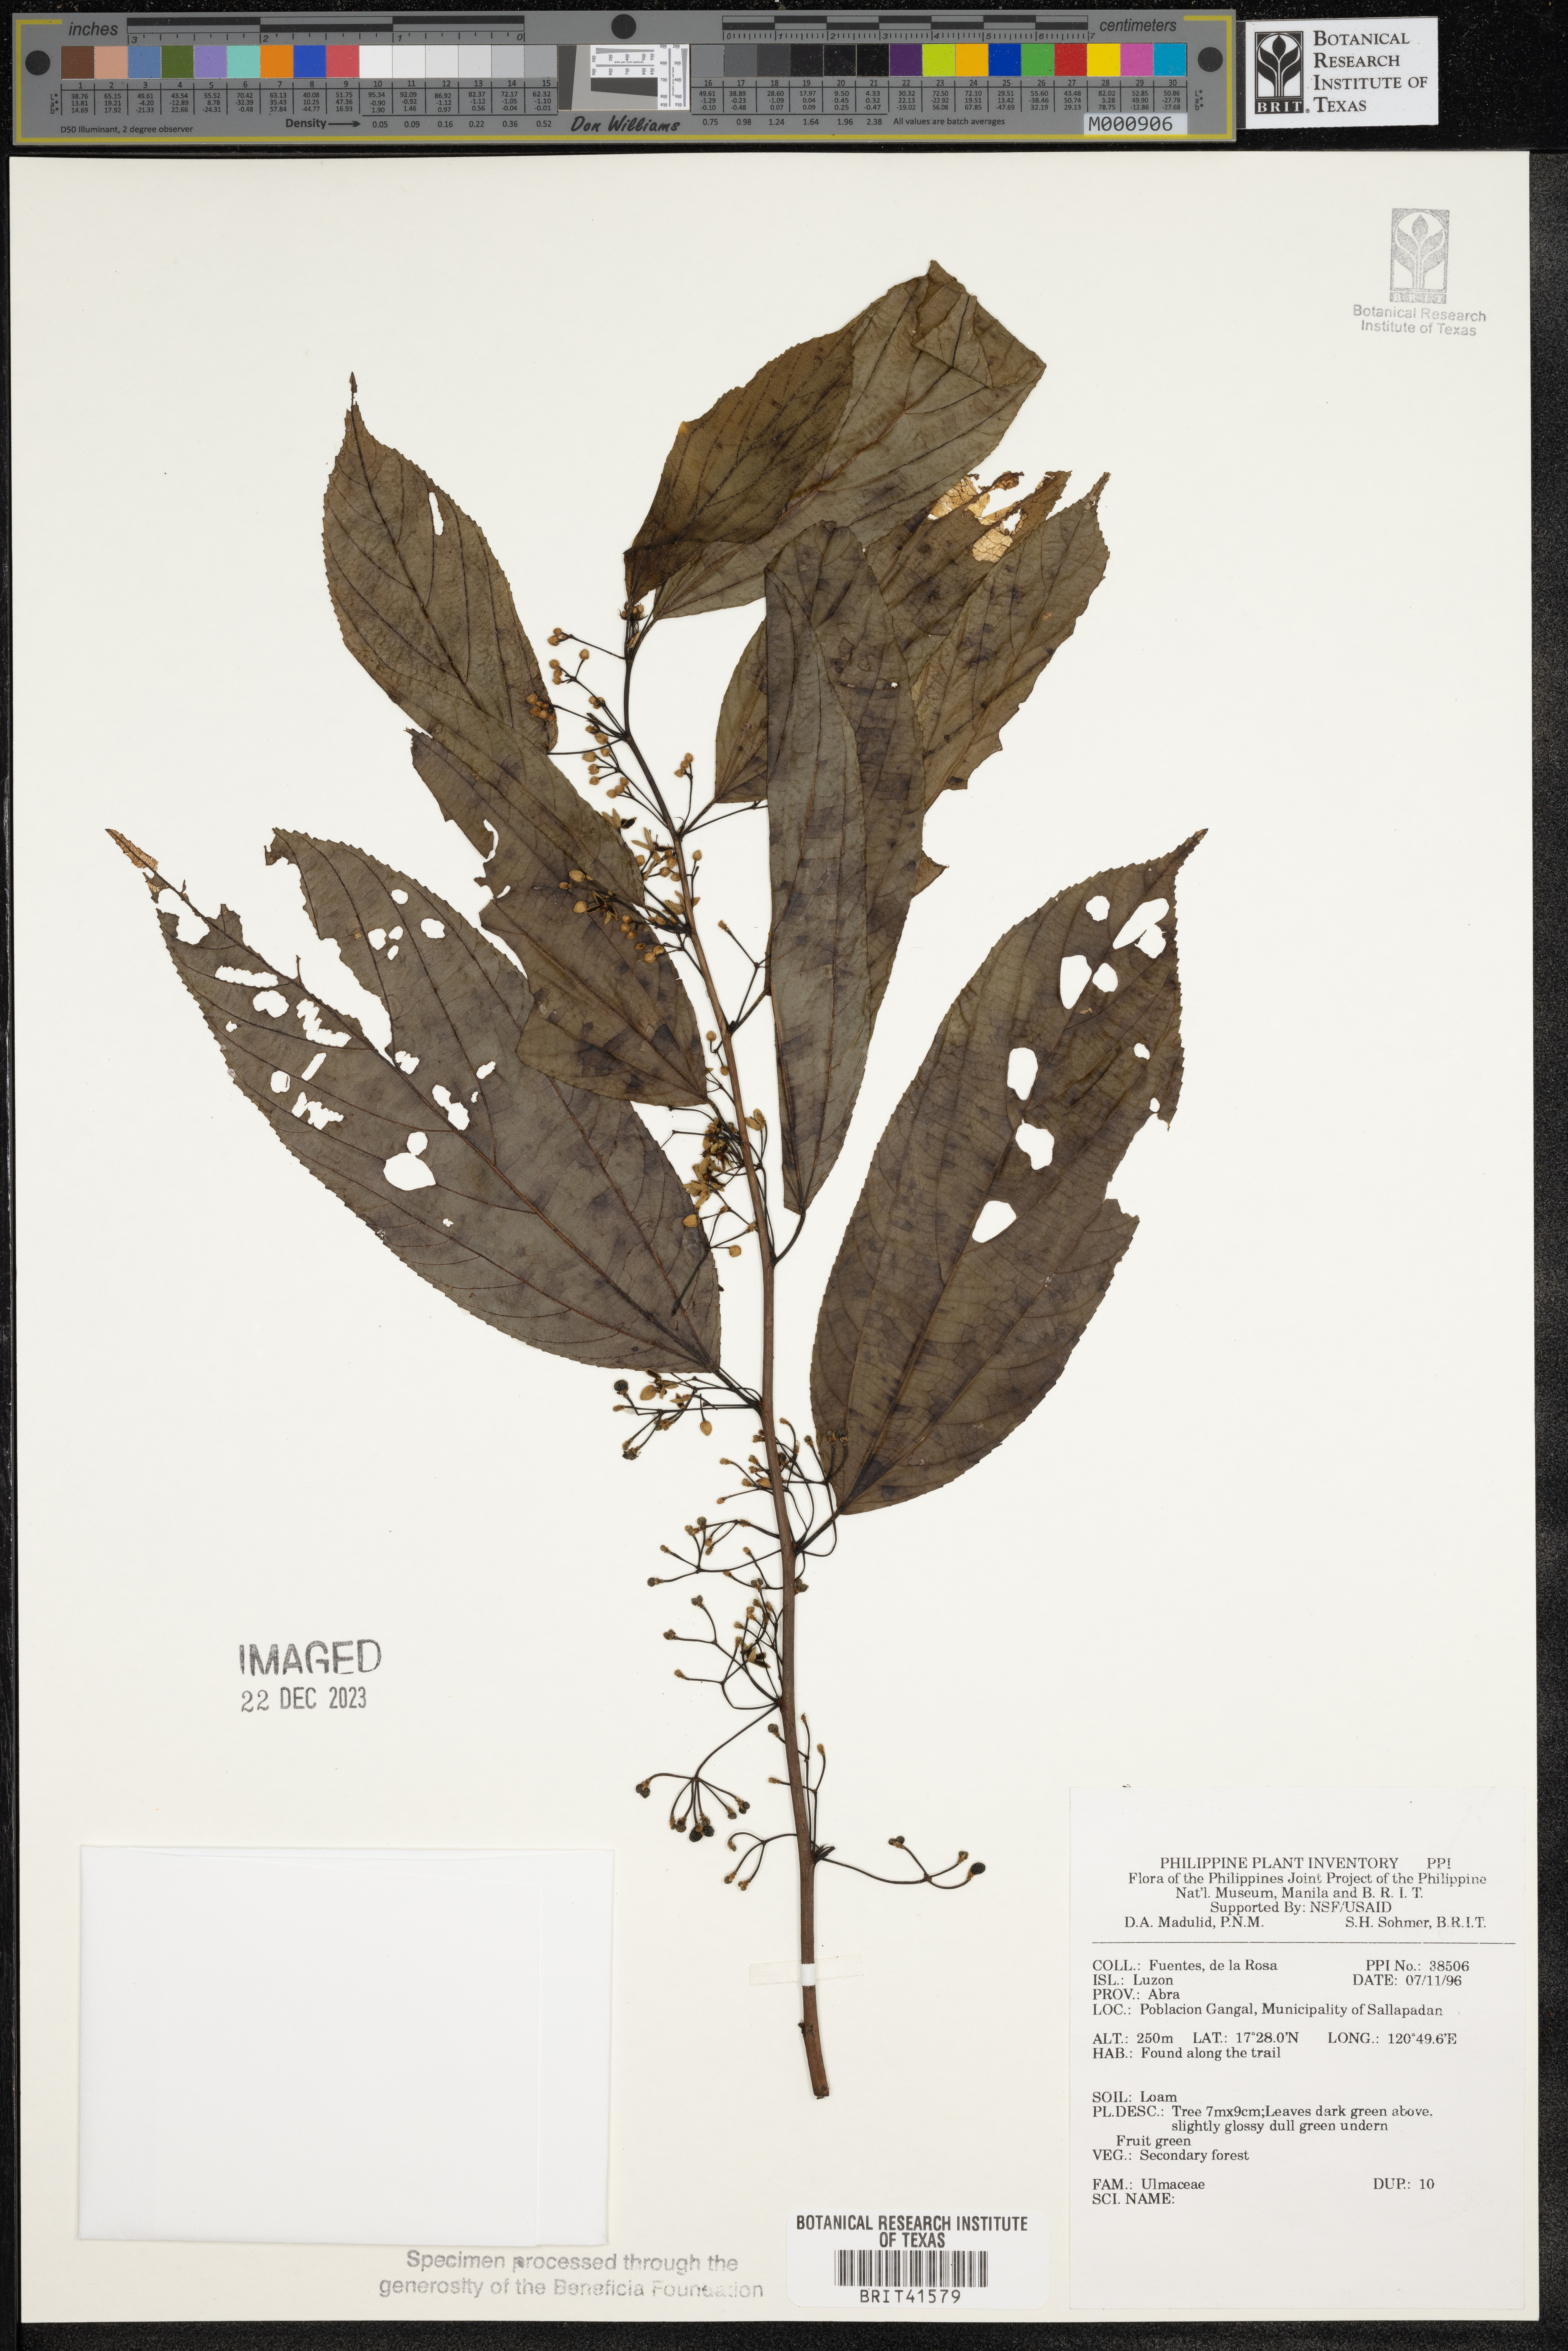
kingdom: Plantae
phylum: Tracheophyta
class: Magnoliopsida
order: Rosales
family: Ulmaceae
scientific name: Ulmaceae
